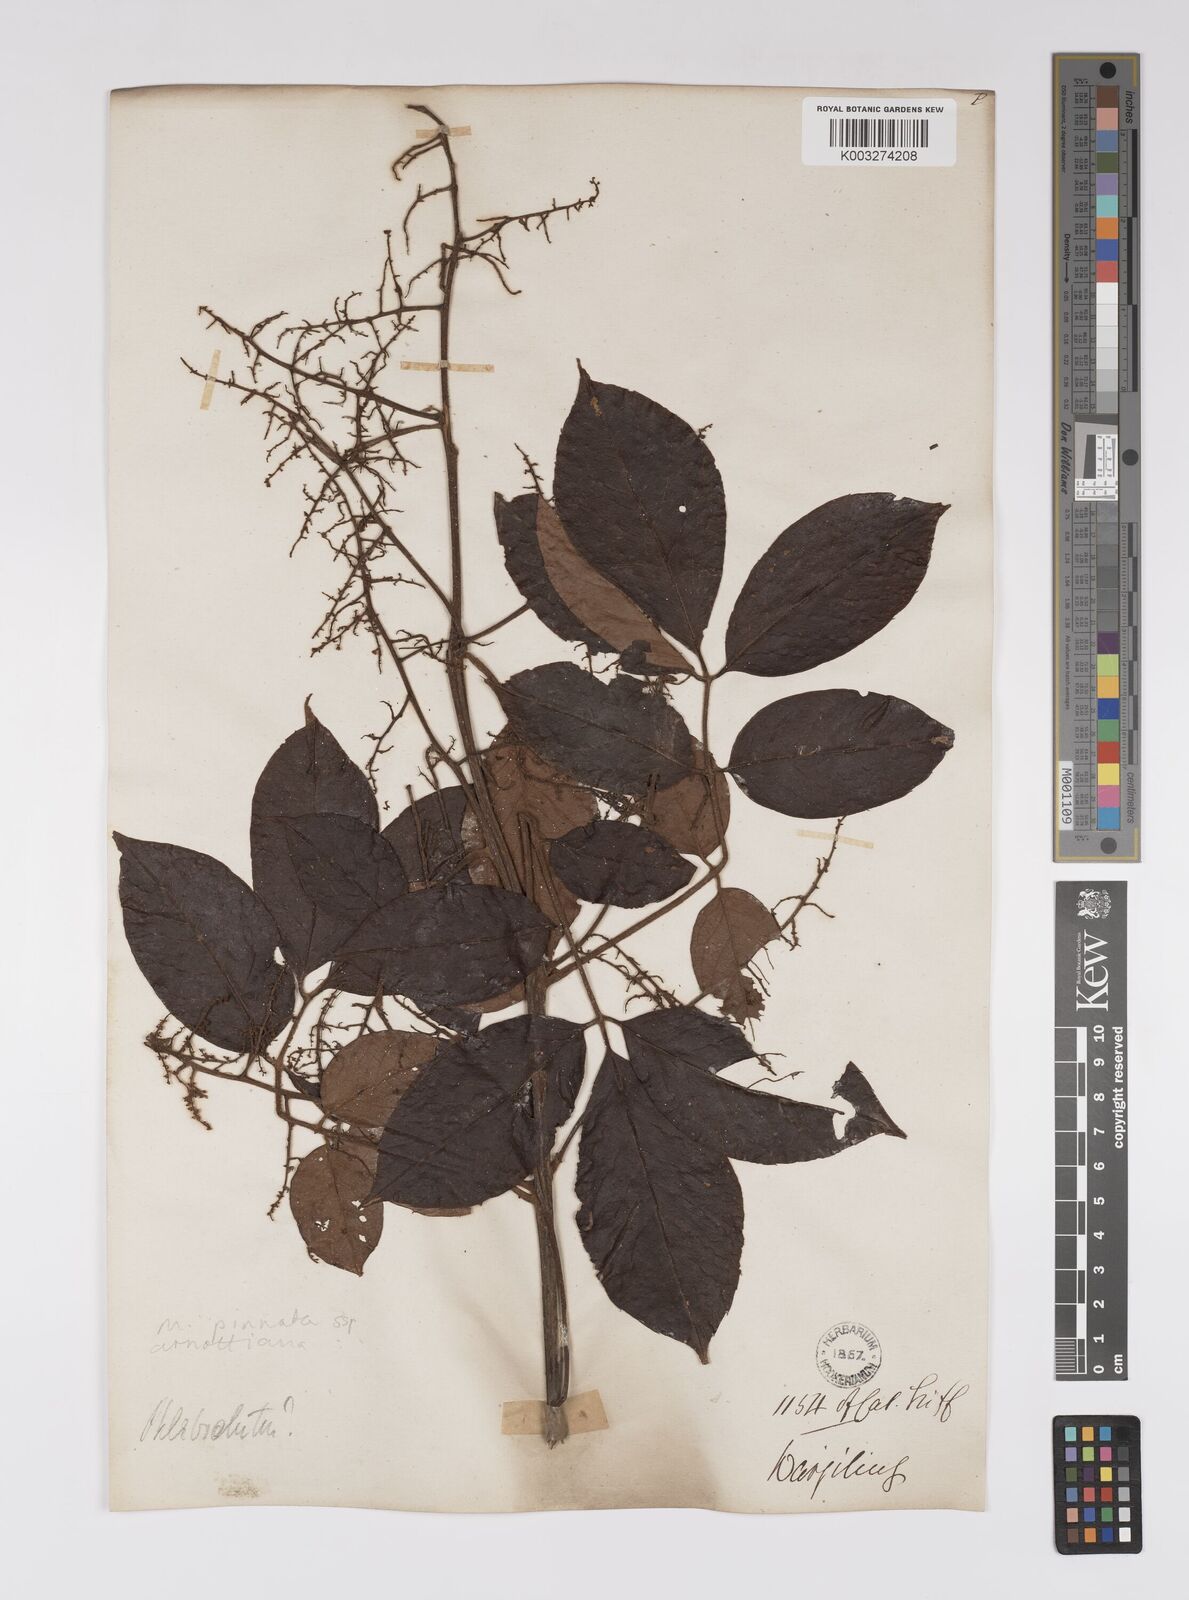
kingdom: Plantae
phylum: Tracheophyta
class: Magnoliopsida
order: Proteales
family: Sabiaceae
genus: Meliosma
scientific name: Meliosma rhoifolia
